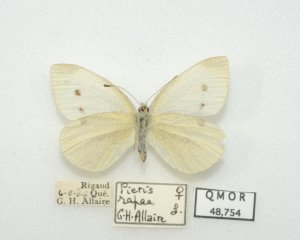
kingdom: Animalia
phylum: Arthropoda
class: Insecta
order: Lepidoptera
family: Pieridae
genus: Pieris
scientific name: Pieris rapae
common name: Cabbage White
